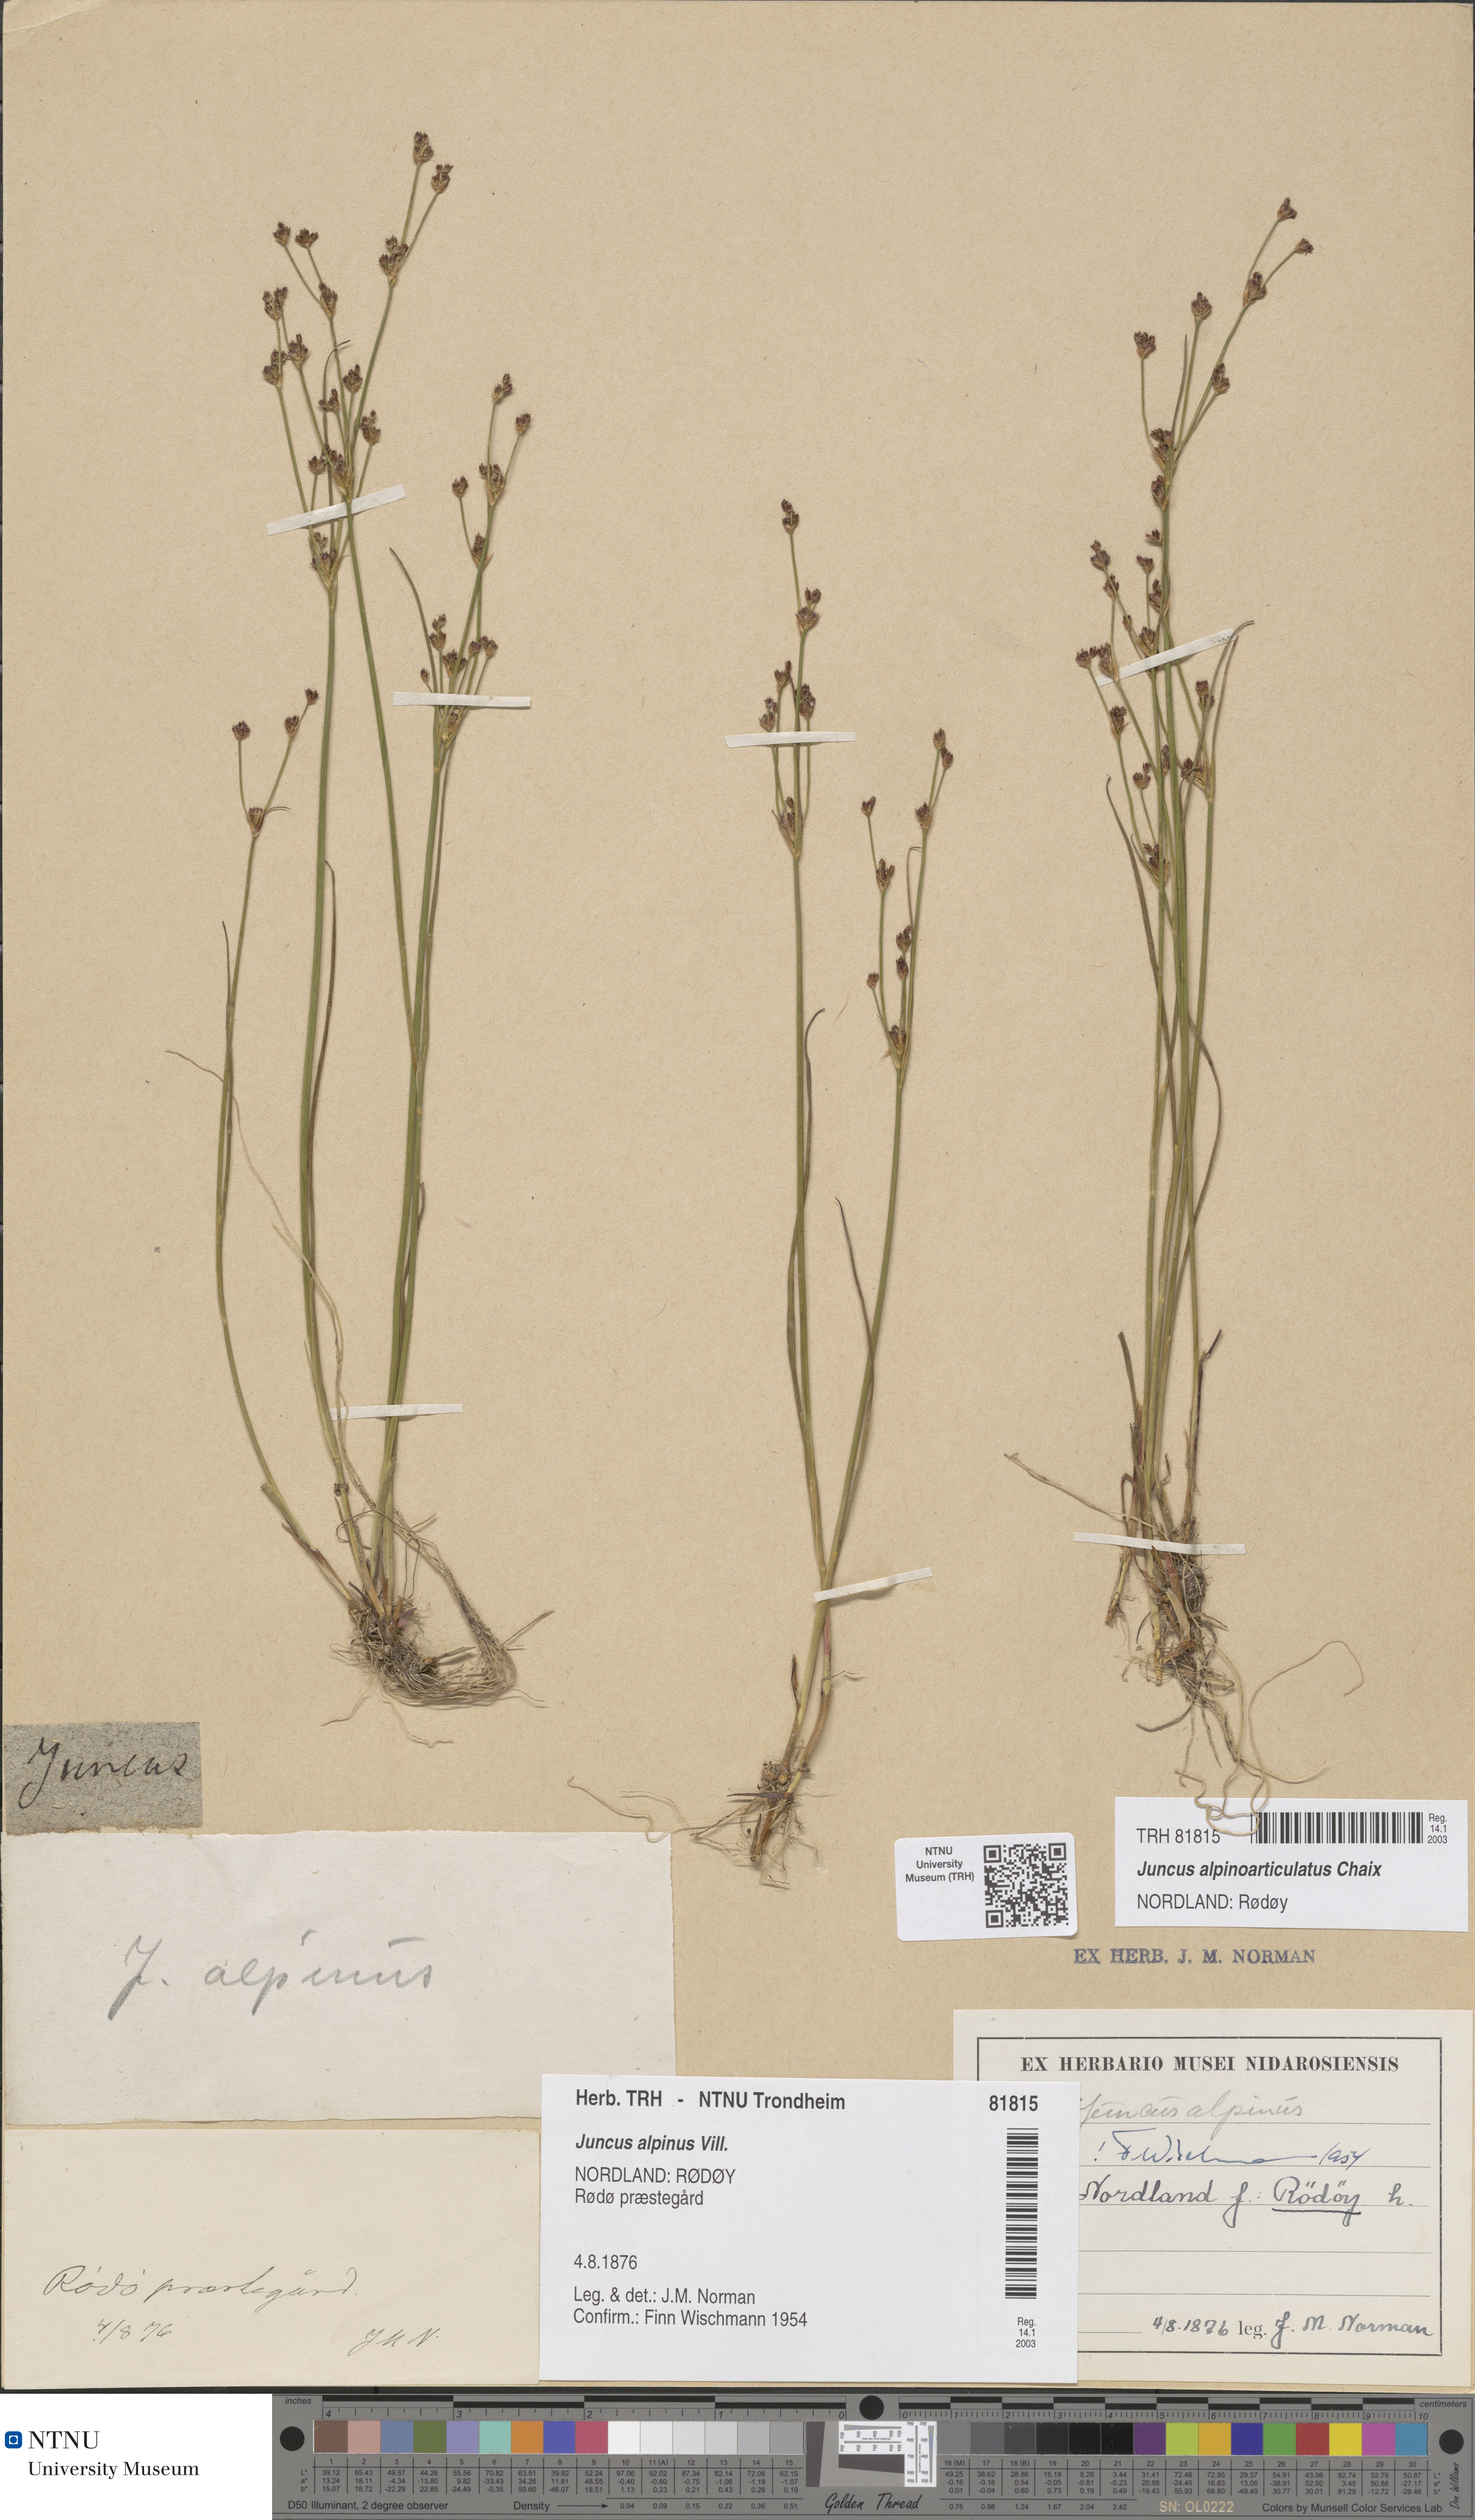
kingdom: Plantae
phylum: Tracheophyta
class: Liliopsida
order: Poales
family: Juncaceae
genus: Juncus
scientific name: Juncus alpinoarticulatus
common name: Alpine rush
